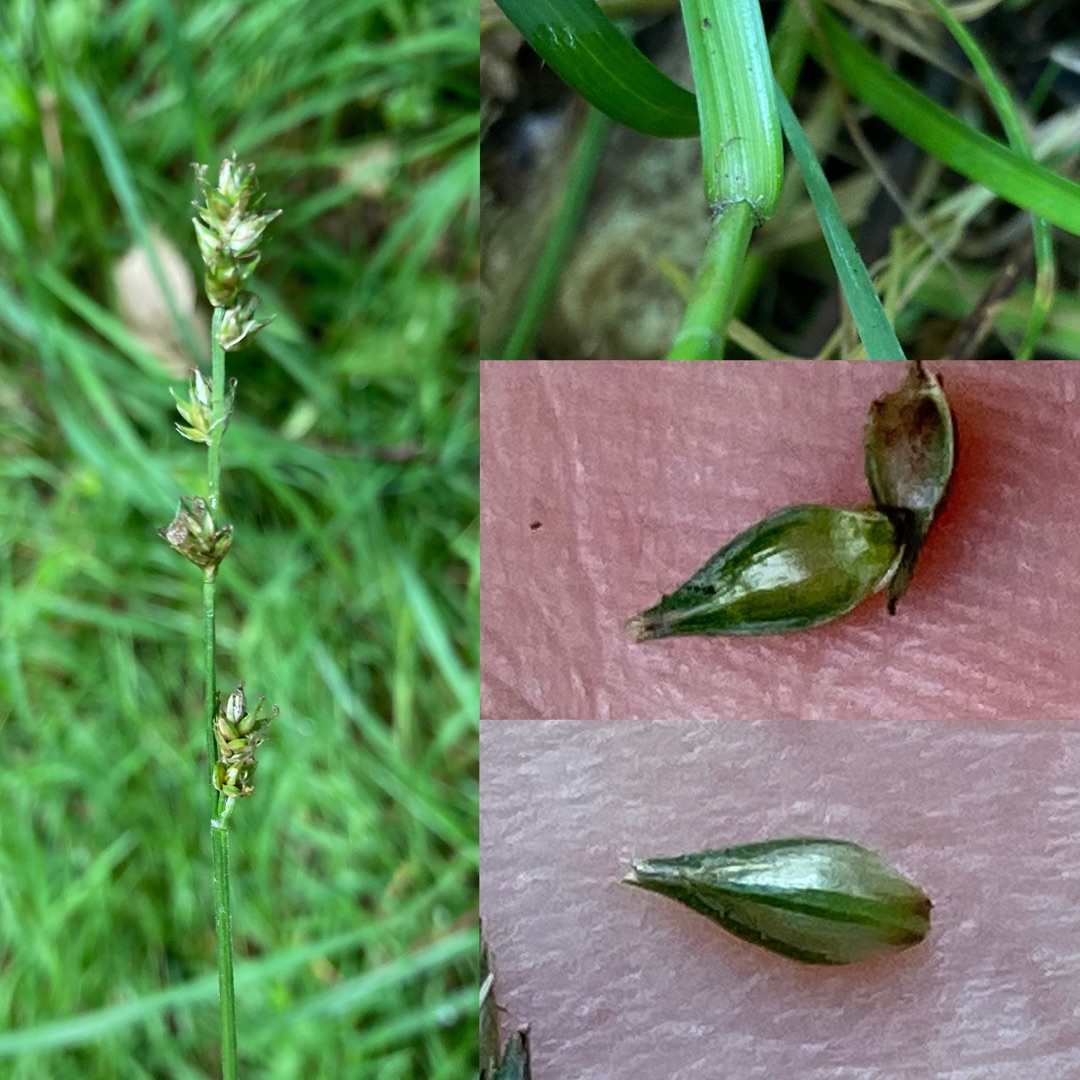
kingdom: Plantae
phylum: Tracheophyta
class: Liliopsida
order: Poales
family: Cyperaceae
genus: Carex
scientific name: Carex divulsa
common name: Mellembrudt star
